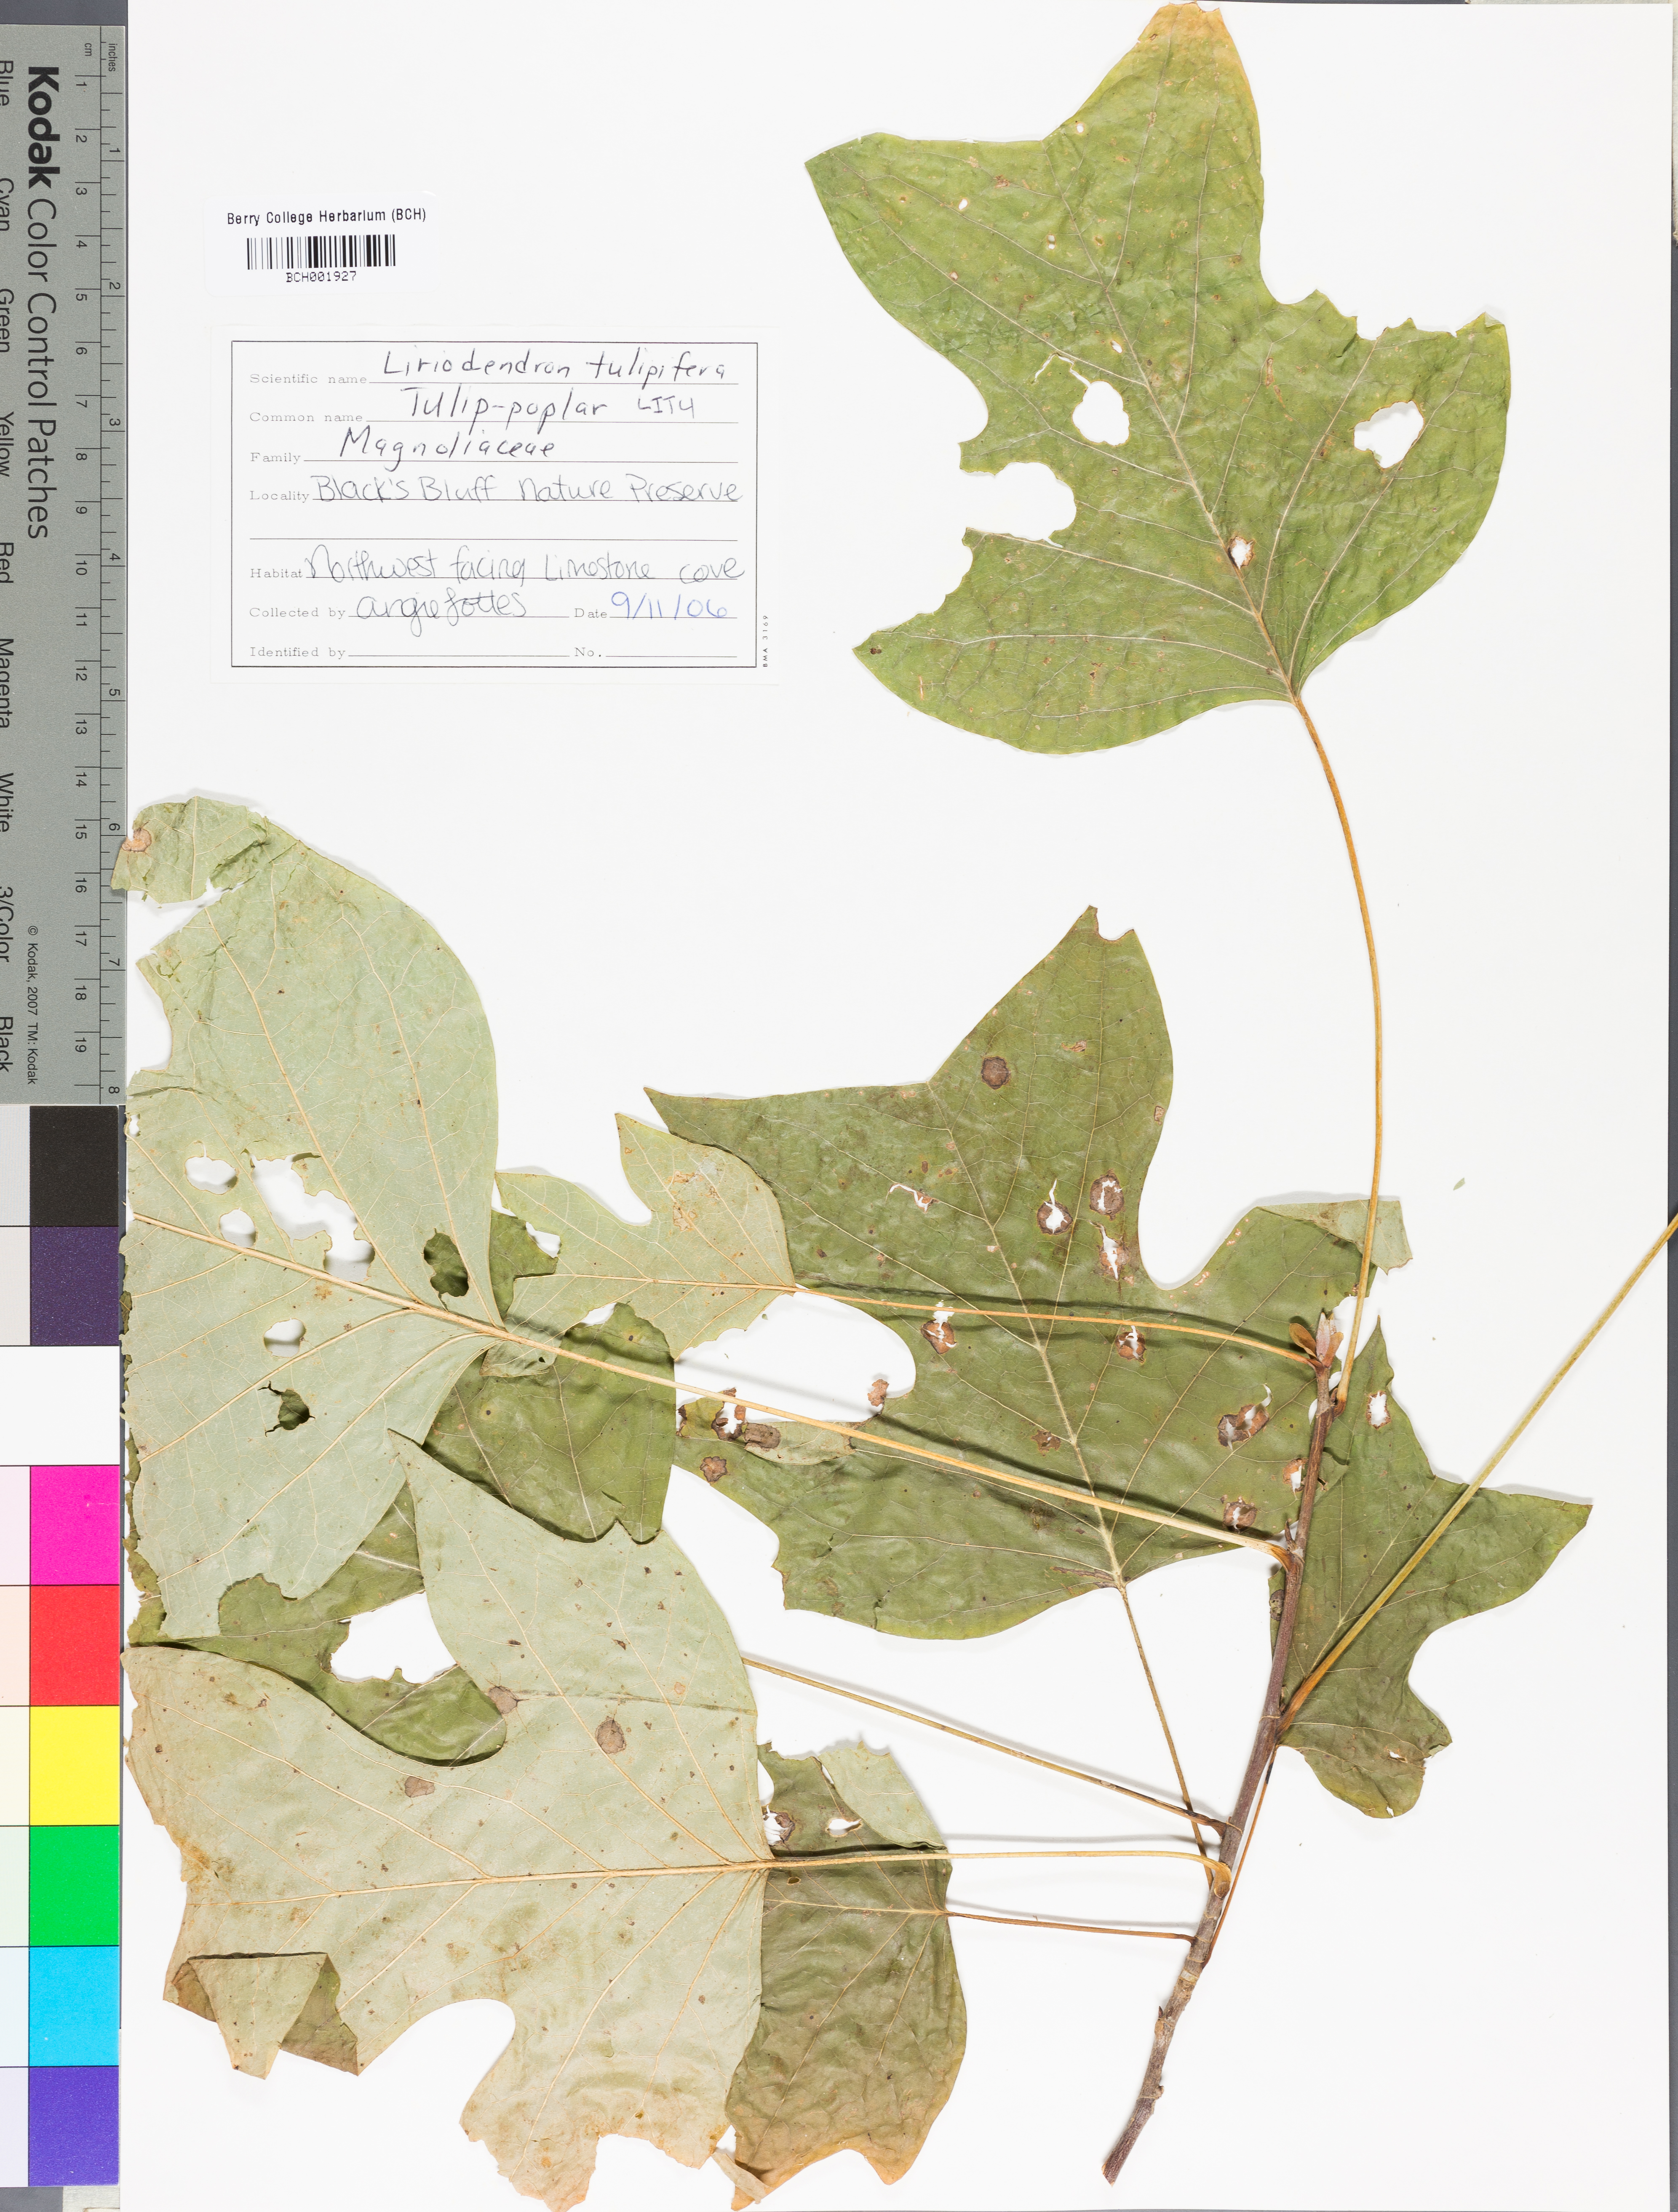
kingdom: Plantae
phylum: Tracheophyta
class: Magnoliopsida
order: Magnoliales
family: Magnoliaceae
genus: Liriodendron
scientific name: Liriodendron tulipifera
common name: Tulip tree
